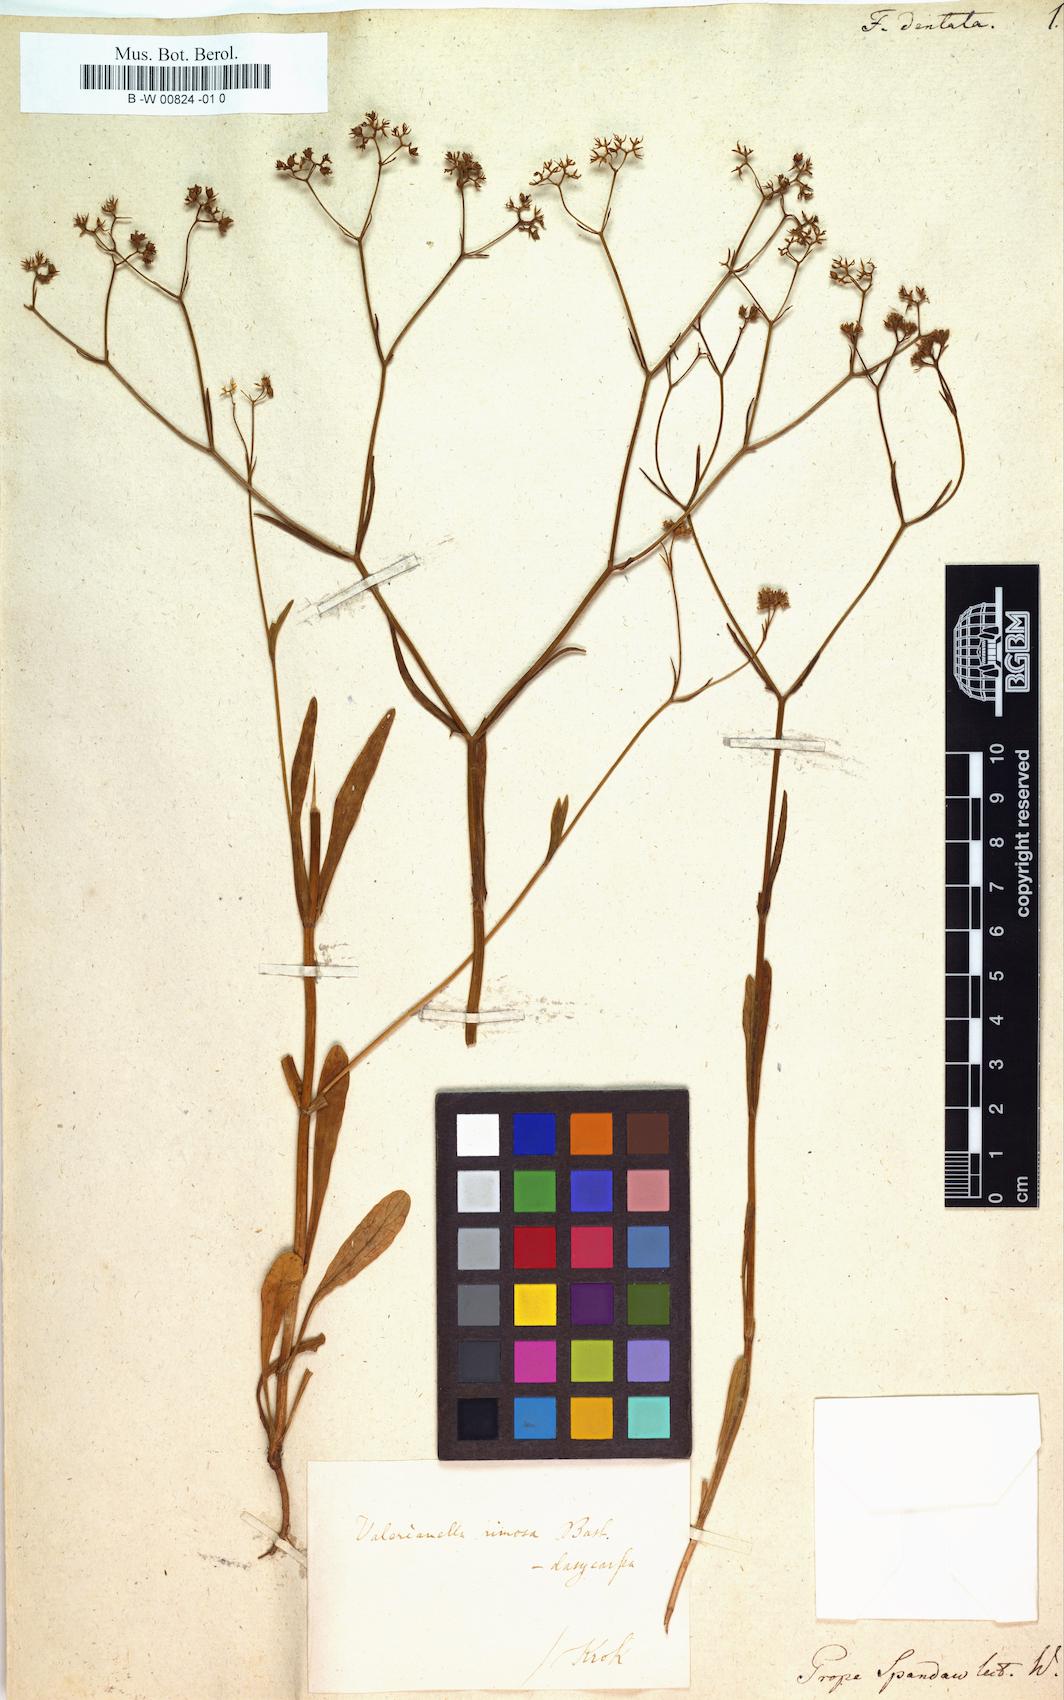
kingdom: Plantae
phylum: Tracheophyta
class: Magnoliopsida
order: Dipsacales
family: Caprifoliaceae
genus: Valerianella
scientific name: Valerianella dentata
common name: Narrow-fruited cornsalad
